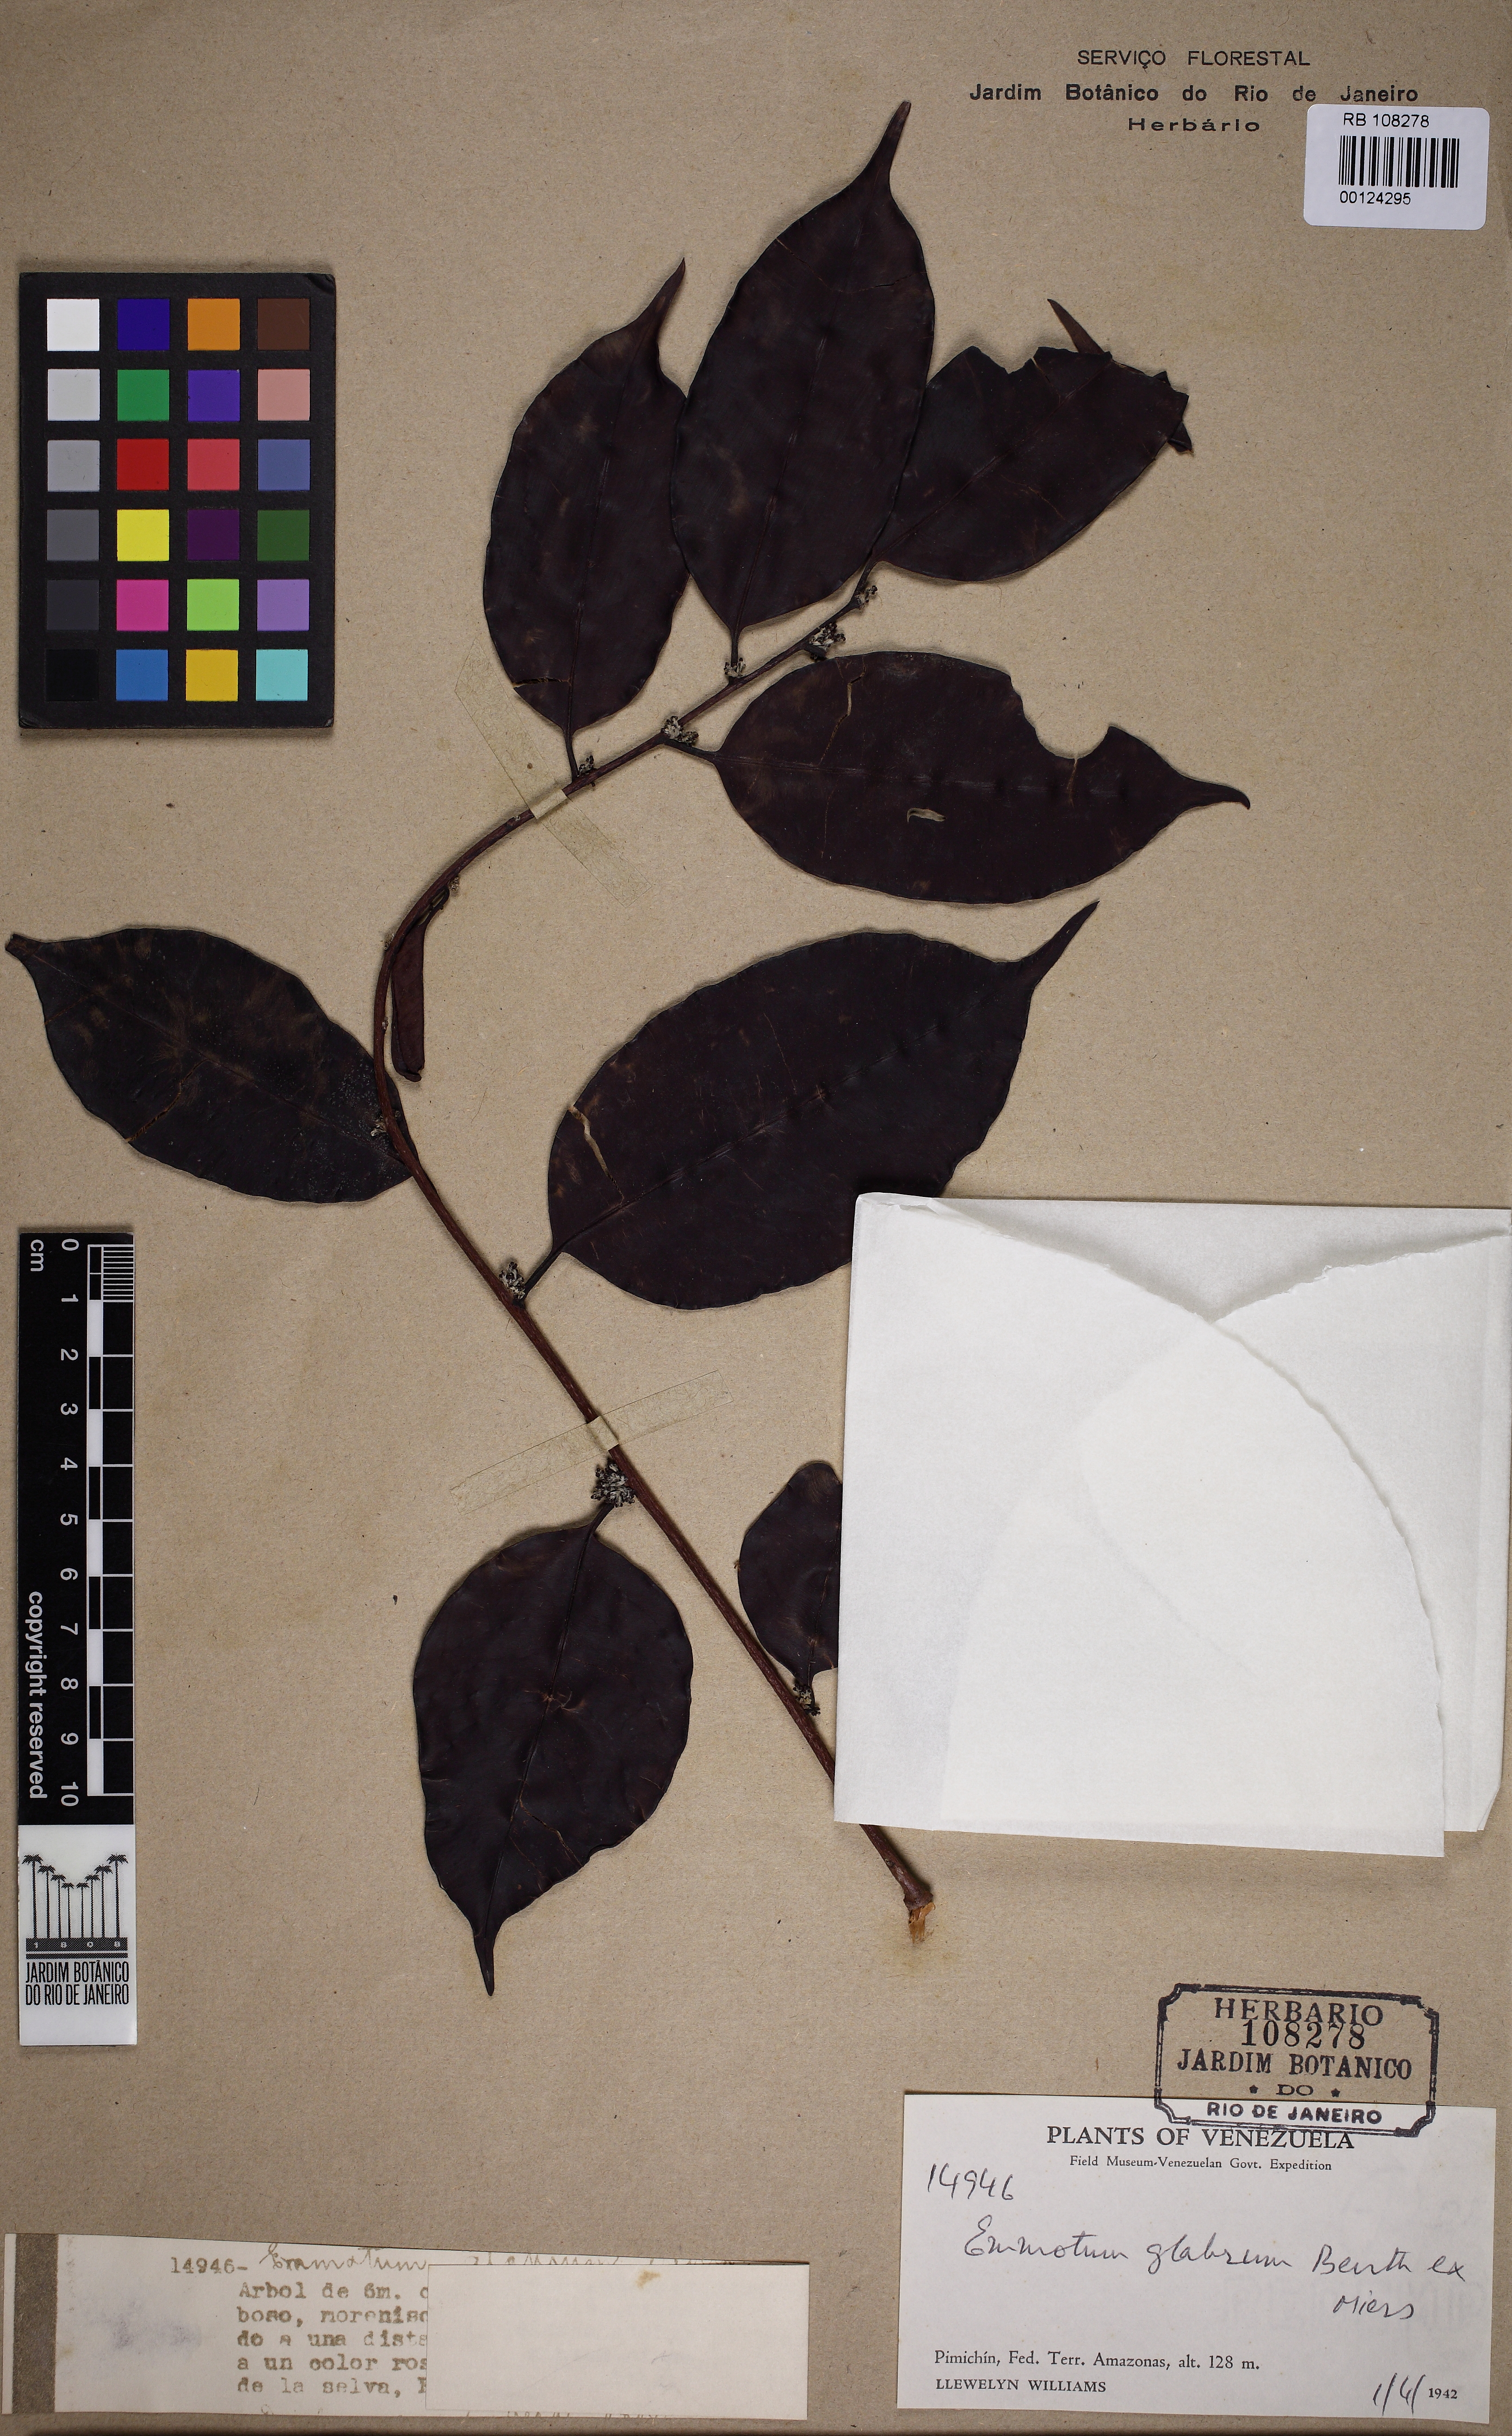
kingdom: Plantae
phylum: Tracheophyta
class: Magnoliopsida
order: Metteniusales
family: Metteniusaceae
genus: Emmotum
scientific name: Emmotum glabrum
